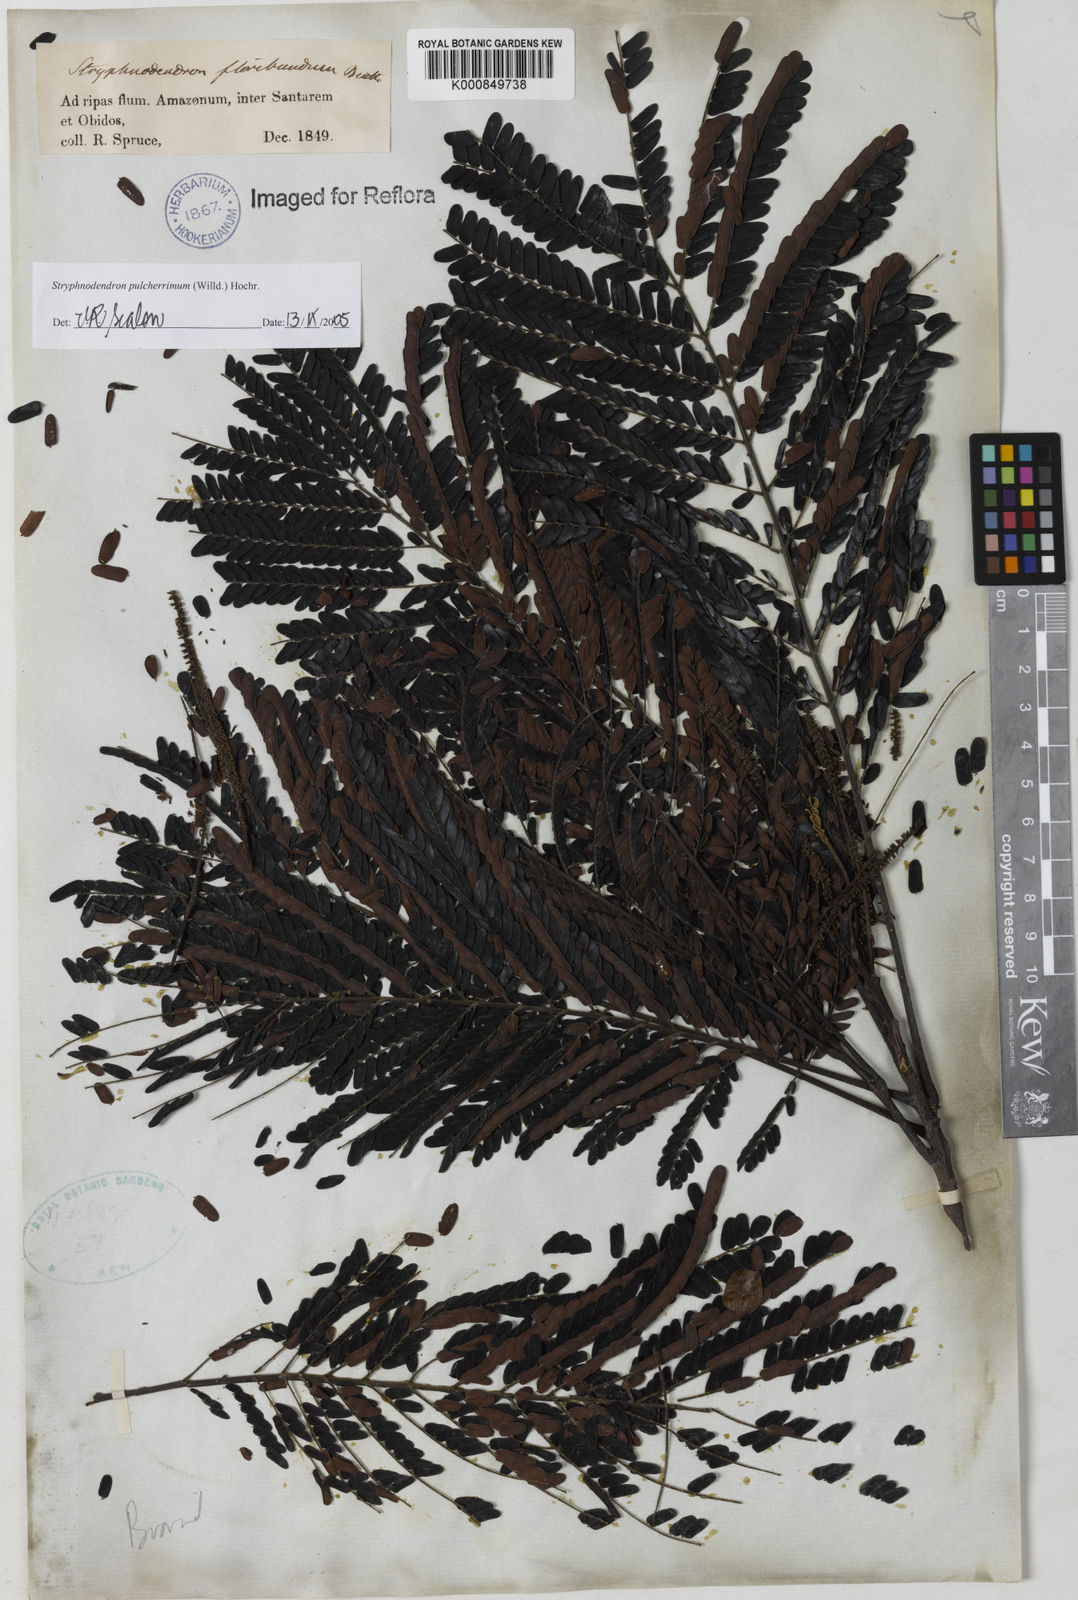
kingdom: Plantae
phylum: Tracheophyta
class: Magnoliopsida
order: Fabales
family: Fabaceae
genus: Stryphnodendron
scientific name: Stryphnodendron pulcherrimum
